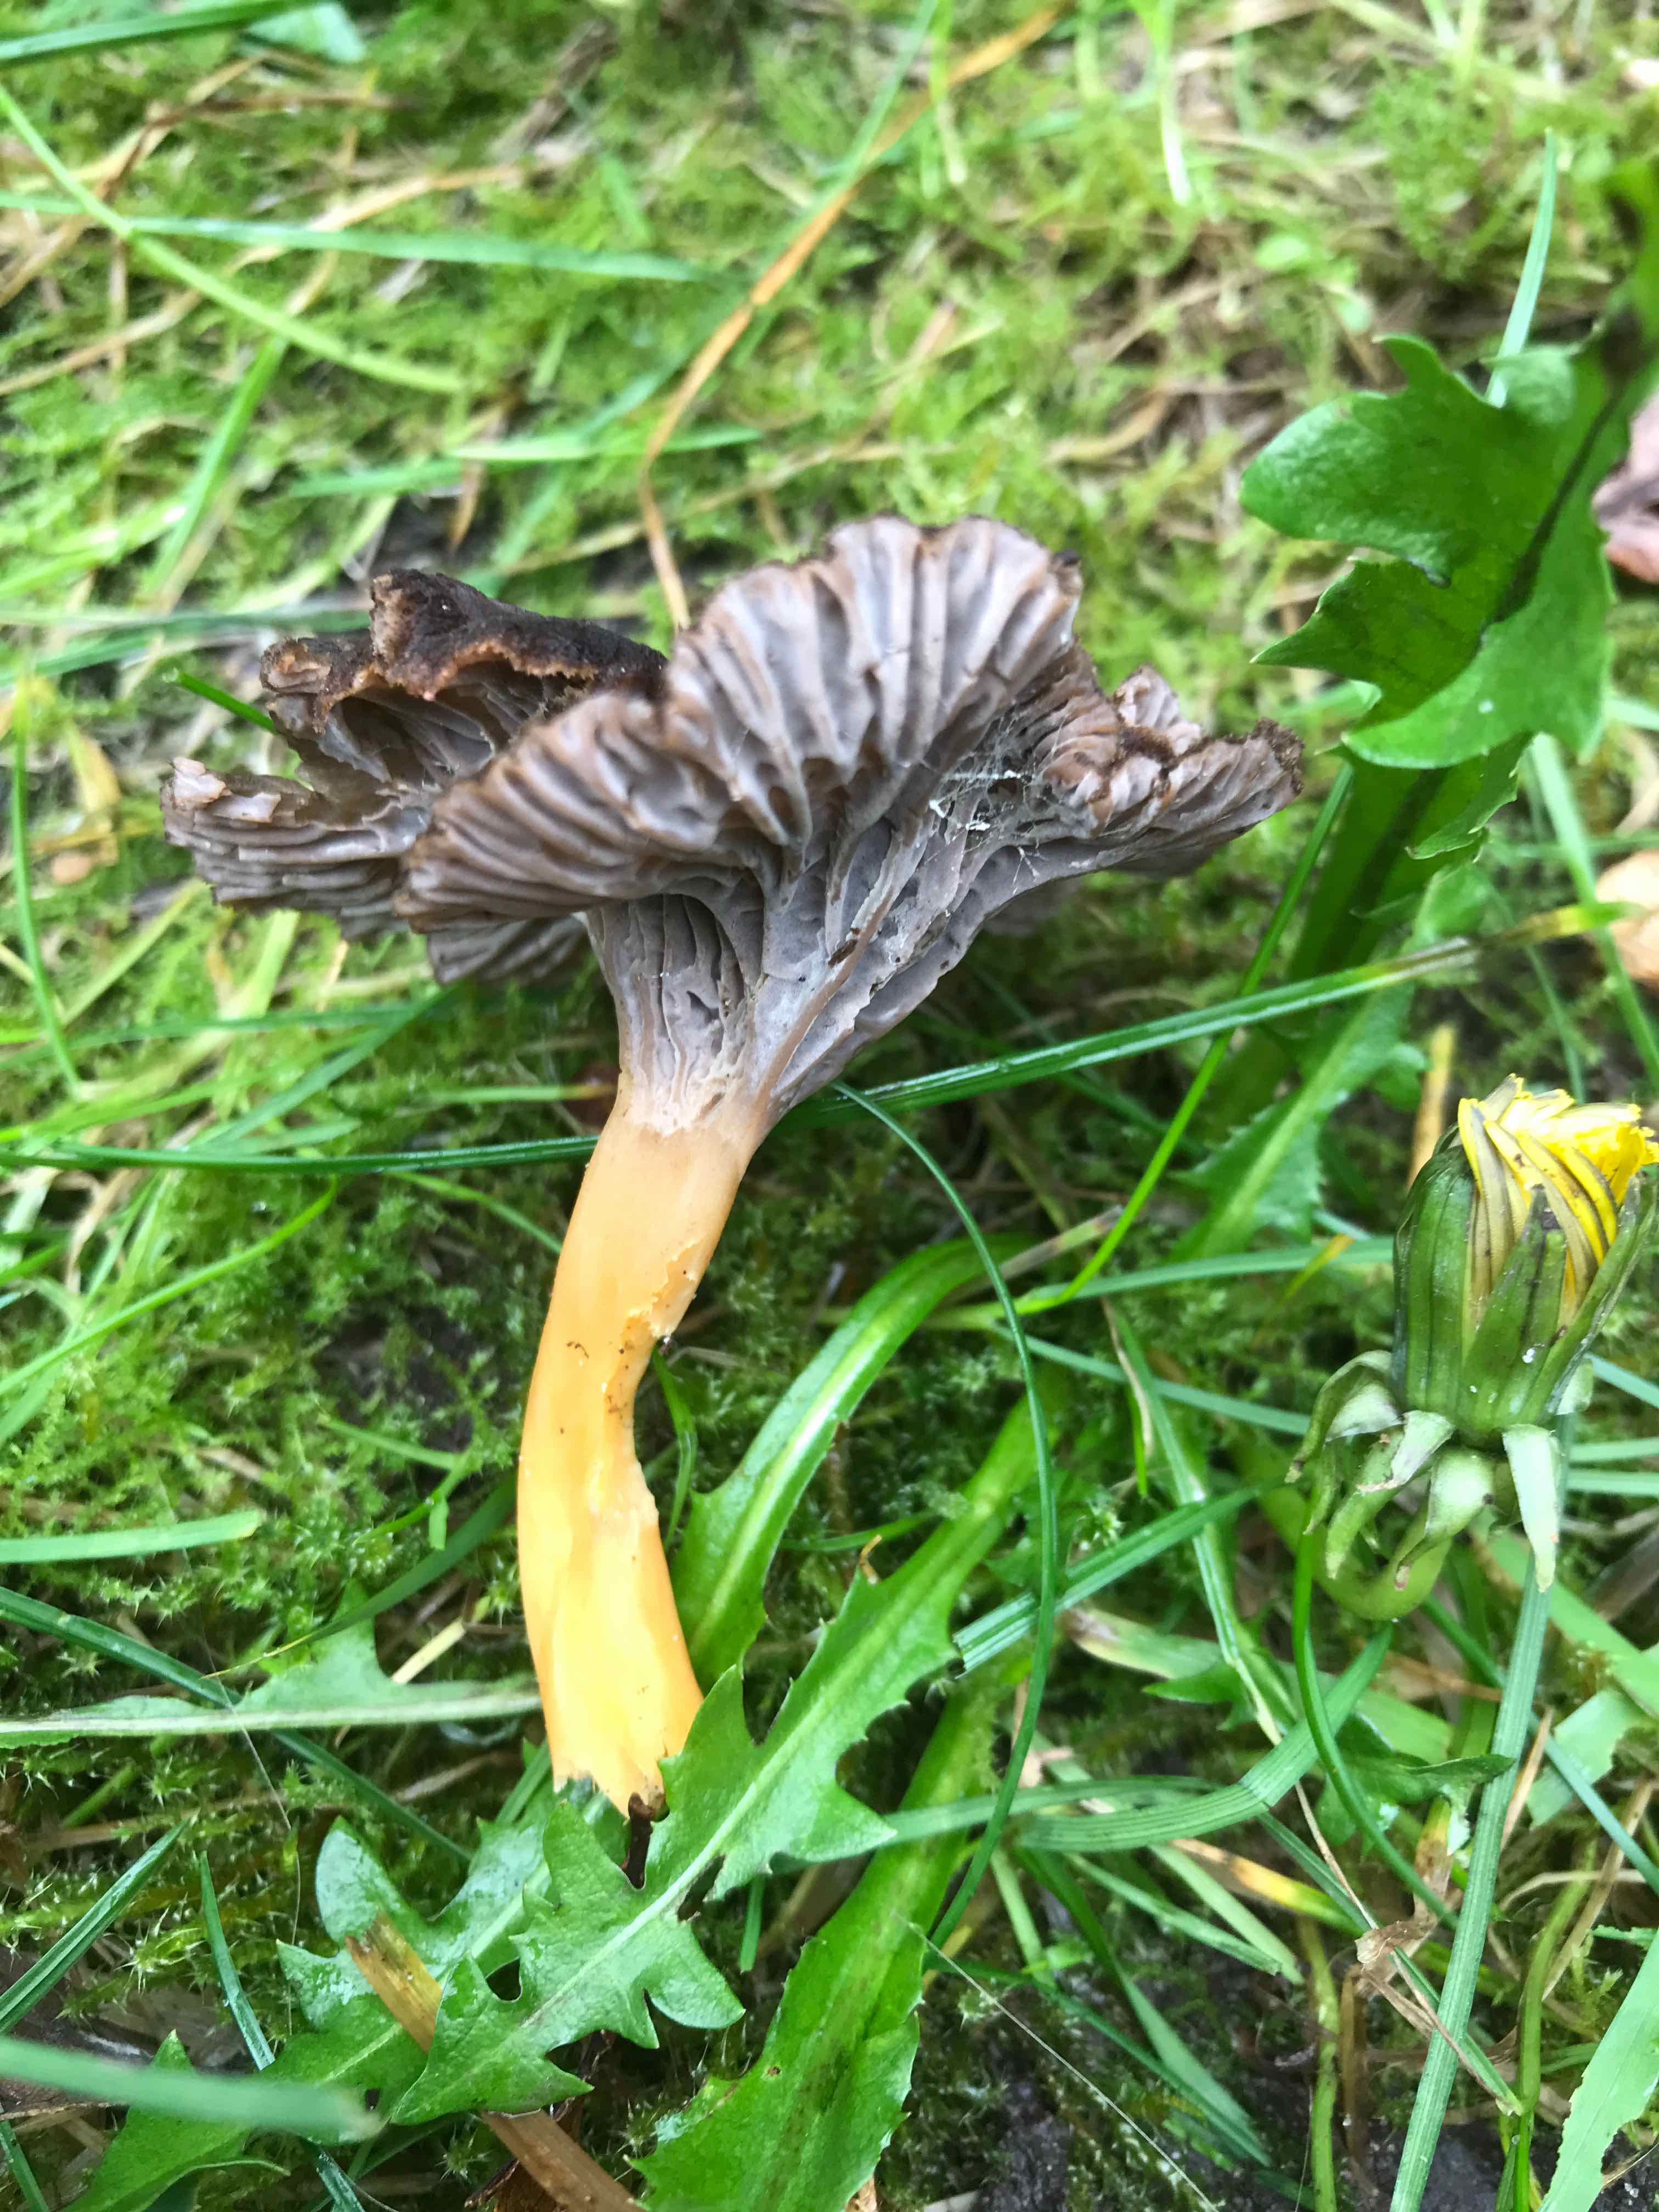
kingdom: Fungi
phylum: Basidiomycota
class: Agaricomycetes
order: Cantharellales
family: Hydnaceae
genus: Craterellus
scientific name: Craterellus tubaeformis
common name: tragt-kantarel
